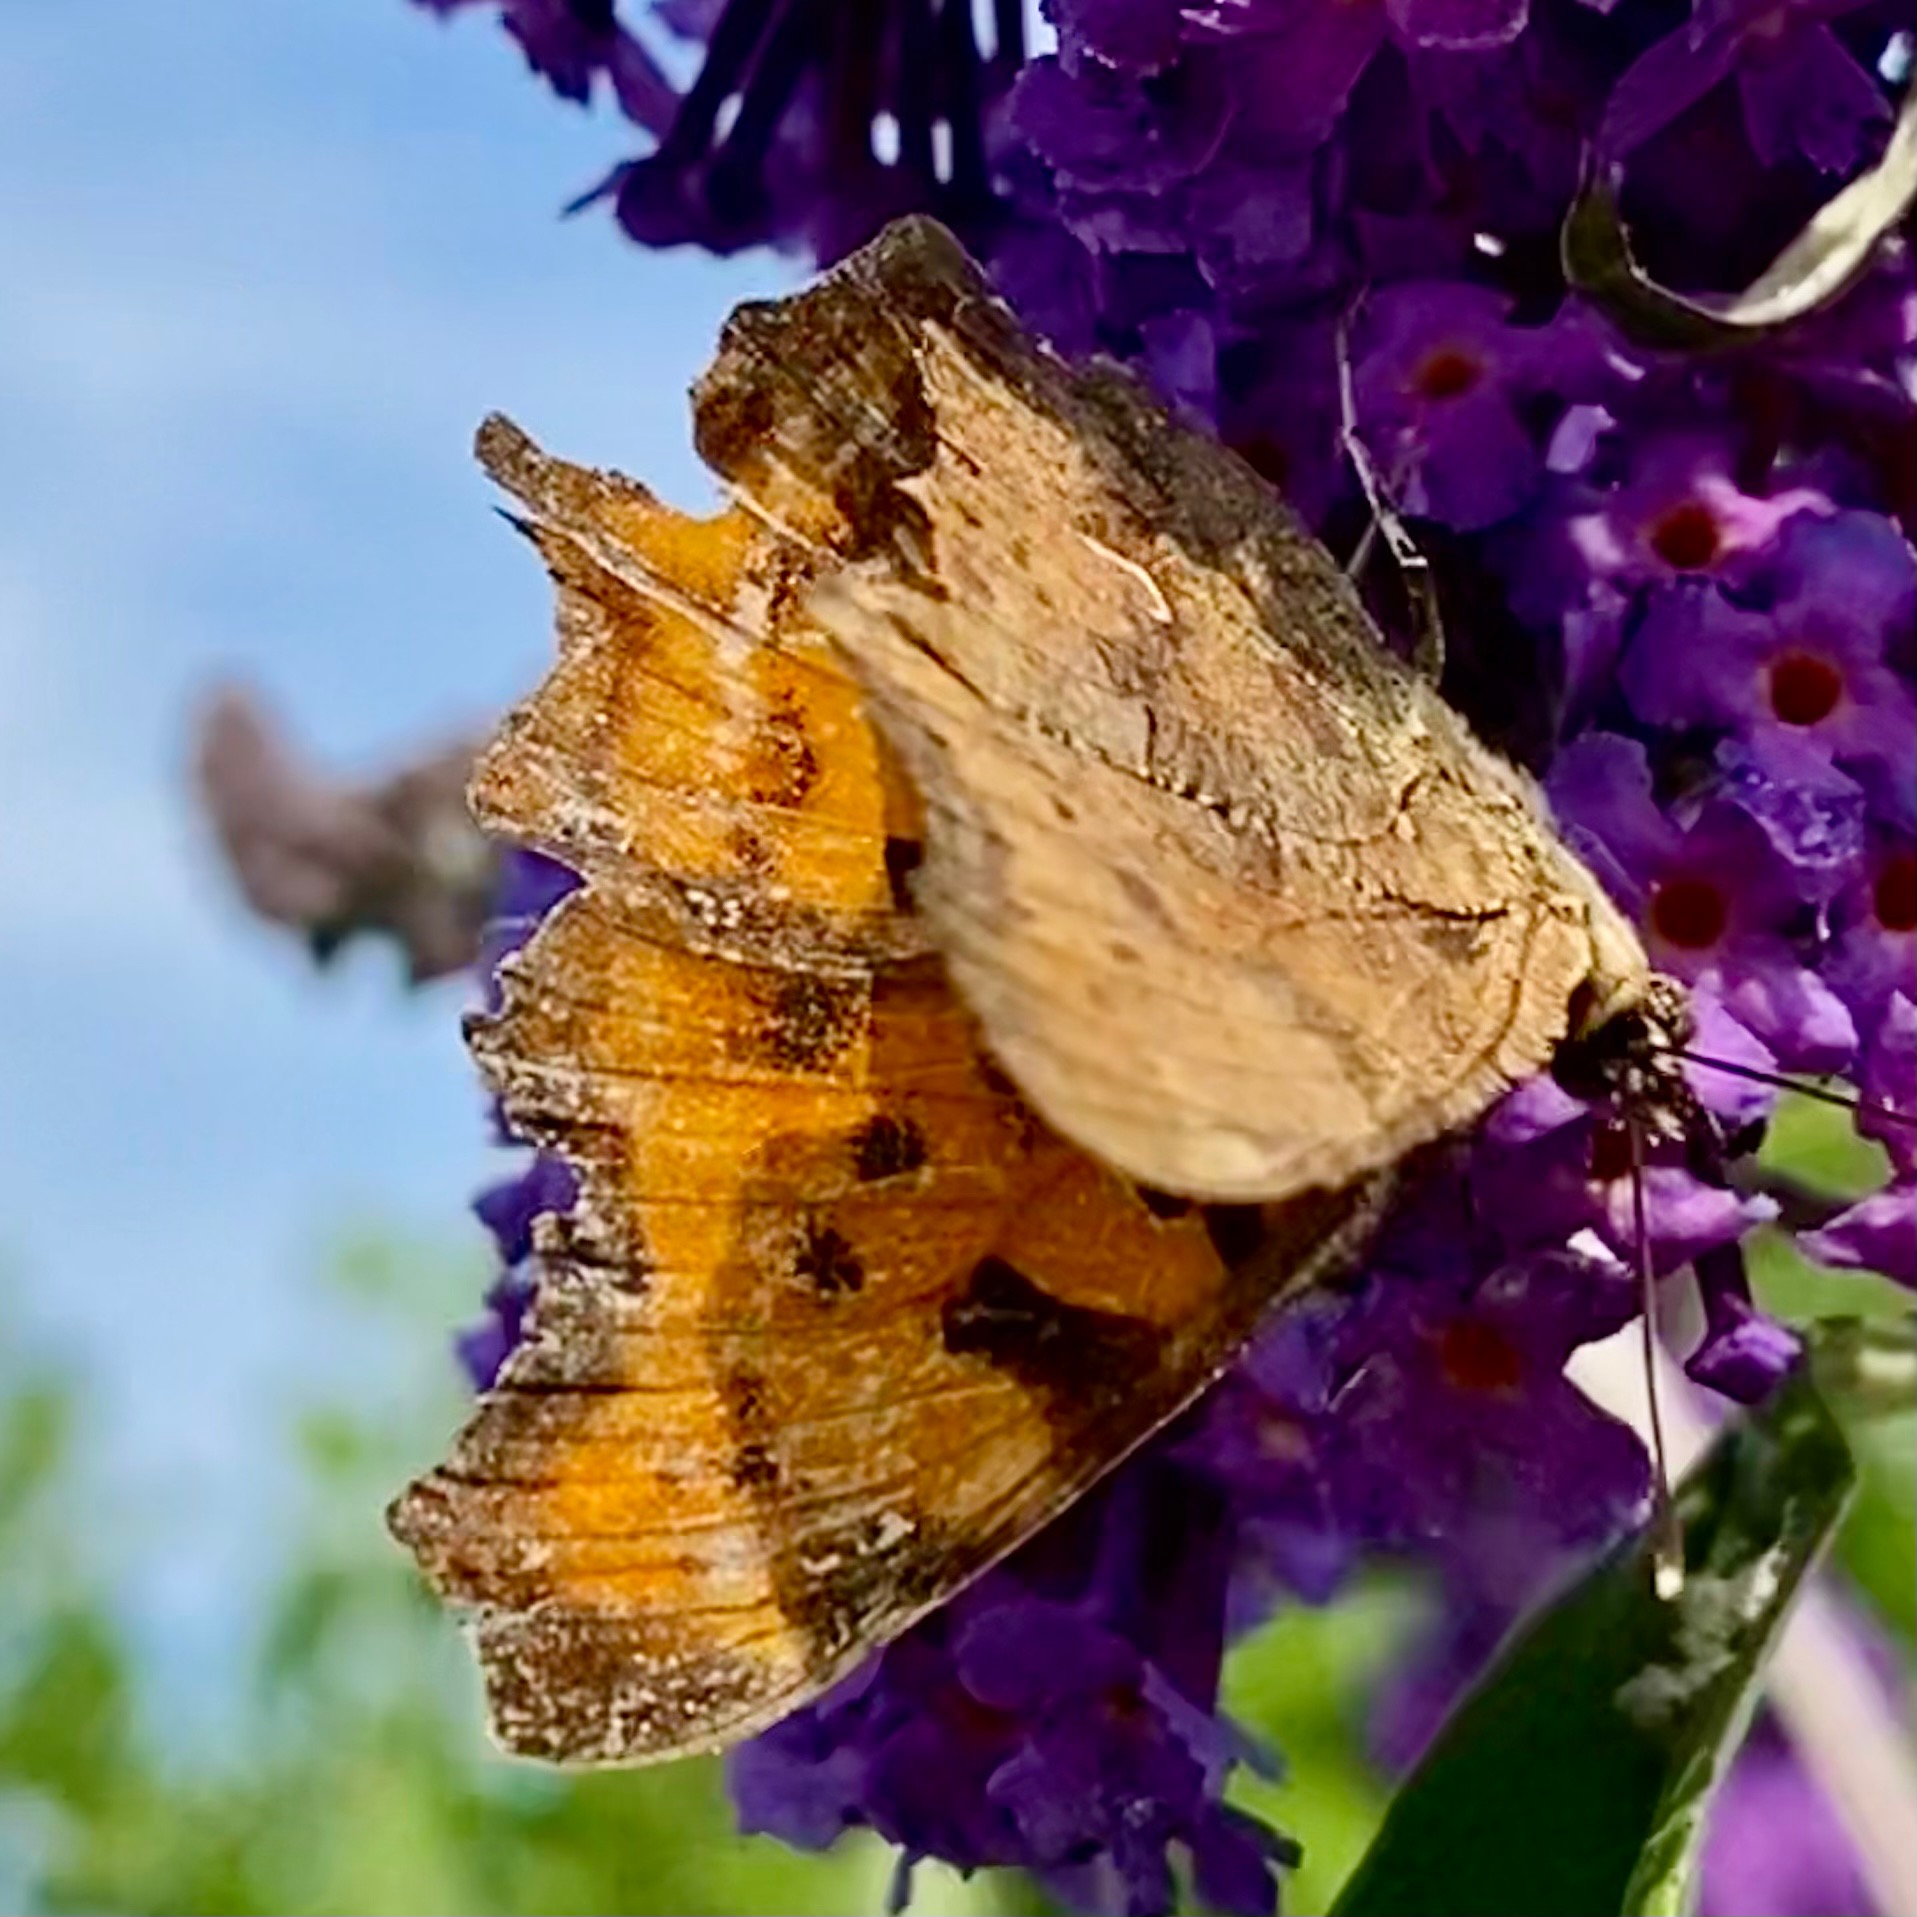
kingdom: Animalia
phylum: Arthropoda
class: Insecta
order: Lepidoptera
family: Nymphalidae
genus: Polygonia
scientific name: Polygonia c-album
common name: Det hvide C
